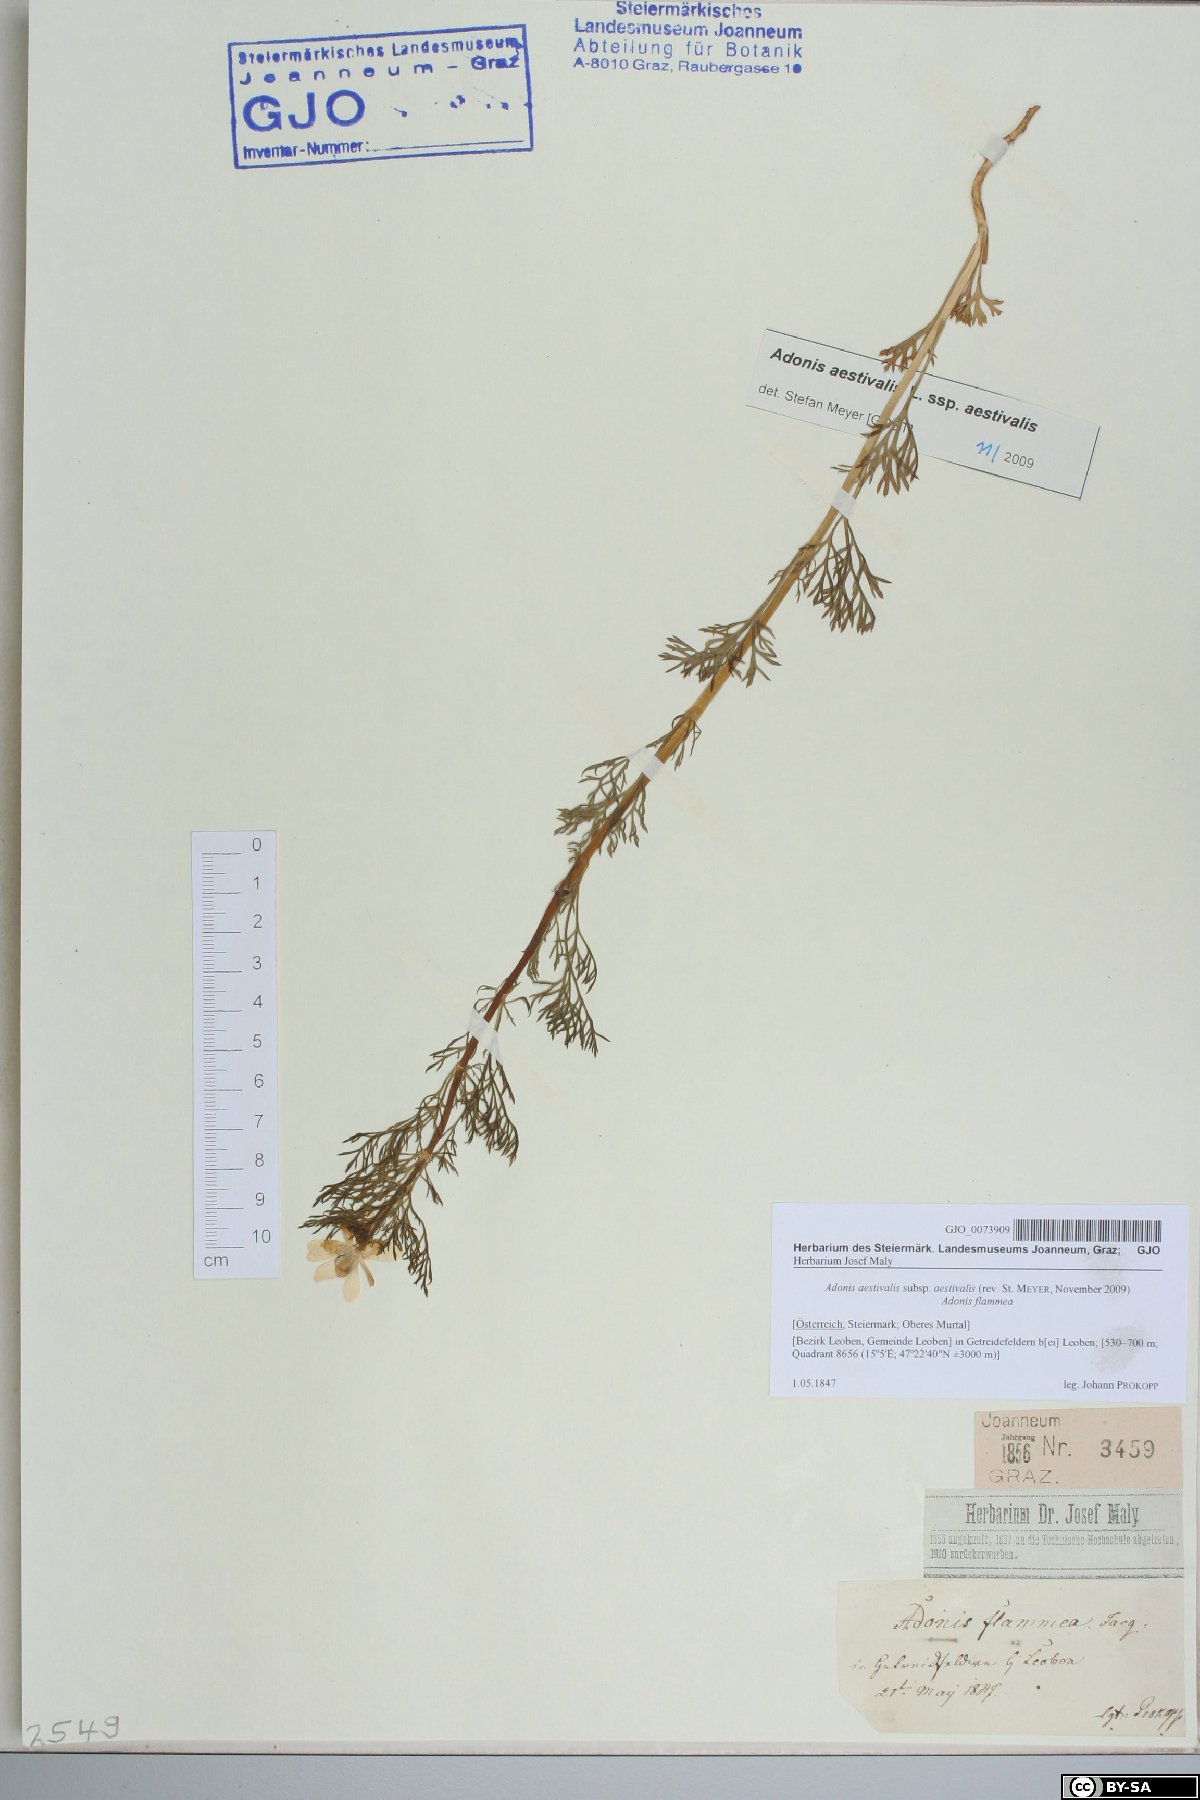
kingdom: Plantae
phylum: Tracheophyta
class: Magnoliopsida
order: Ranunculales
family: Ranunculaceae
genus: Adonis
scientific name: Adonis aestivalis
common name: Summer pheasant's-eye
